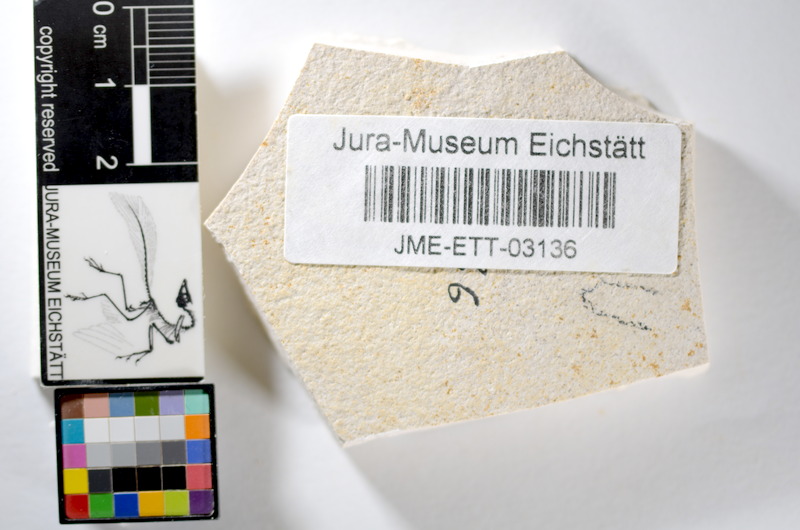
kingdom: Animalia
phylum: Chordata
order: Salmoniformes
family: Orthogonikleithridae
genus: Orthogonikleithrus
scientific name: Orthogonikleithrus hoelli
